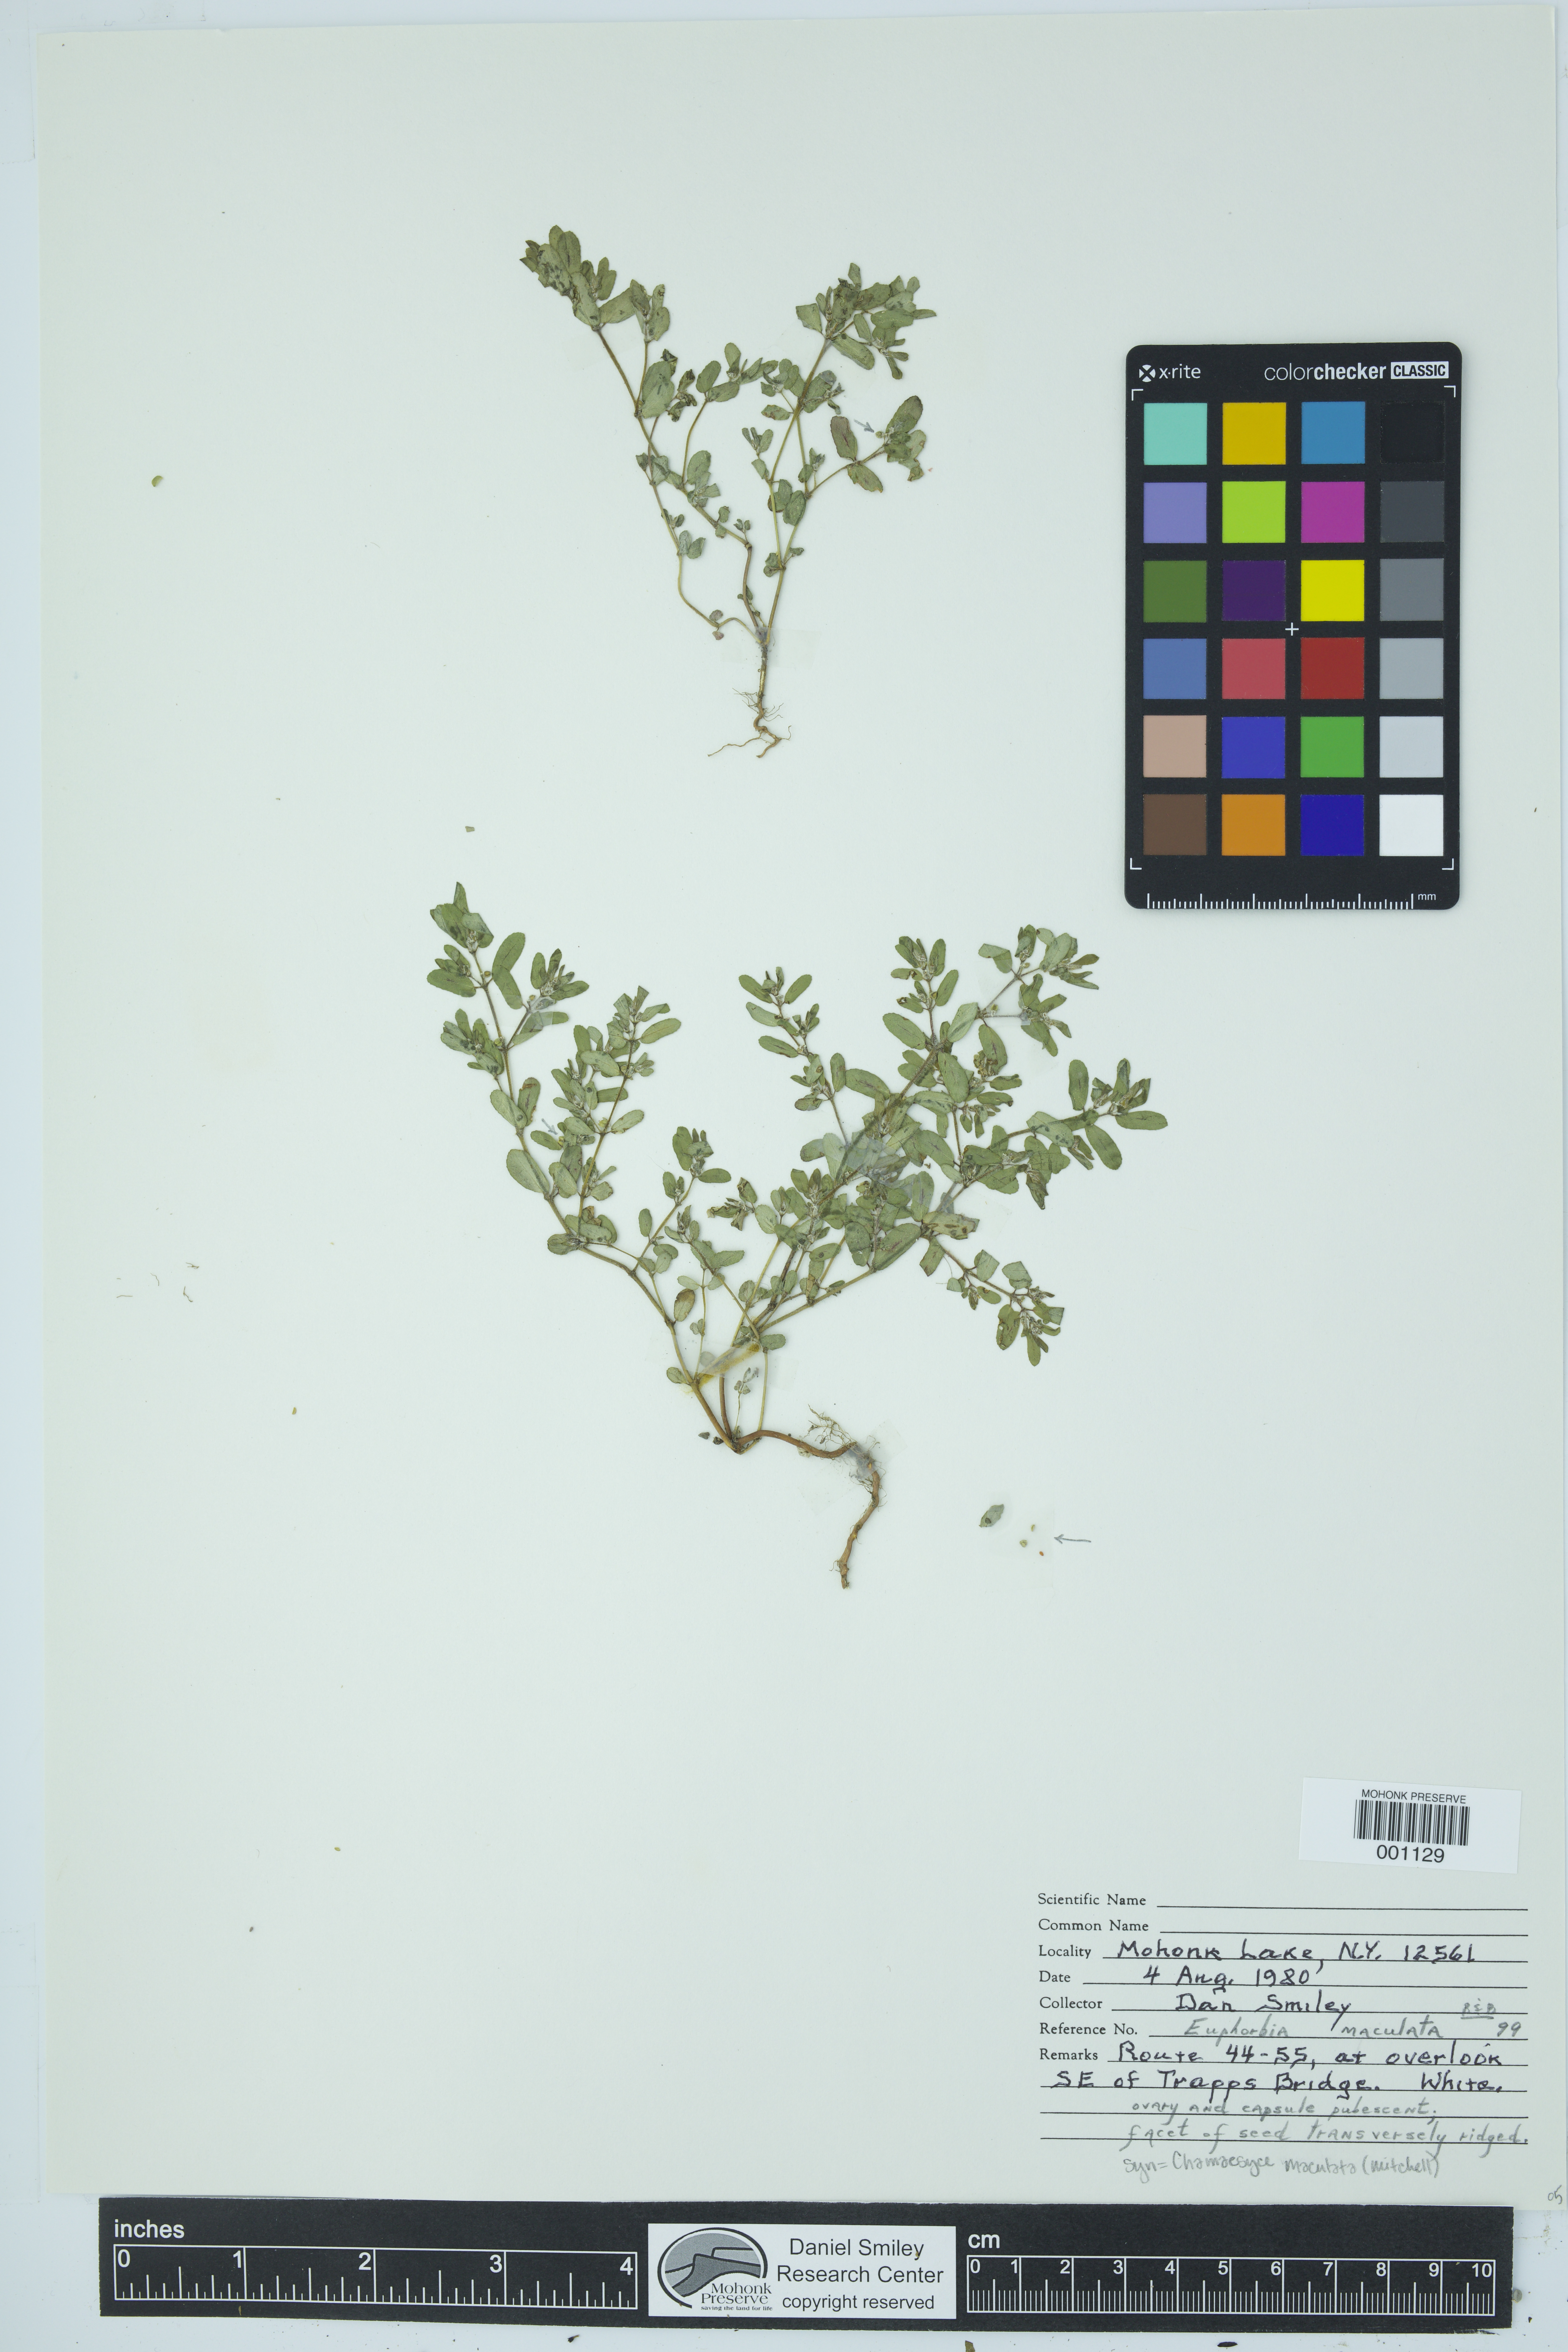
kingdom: Plantae
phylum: Tracheophyta
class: Magnoliopsida
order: Malpighiales
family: Euphorbiaceae
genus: Euphorbia
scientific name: Euphorbia maculata
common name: Spotted spurge
